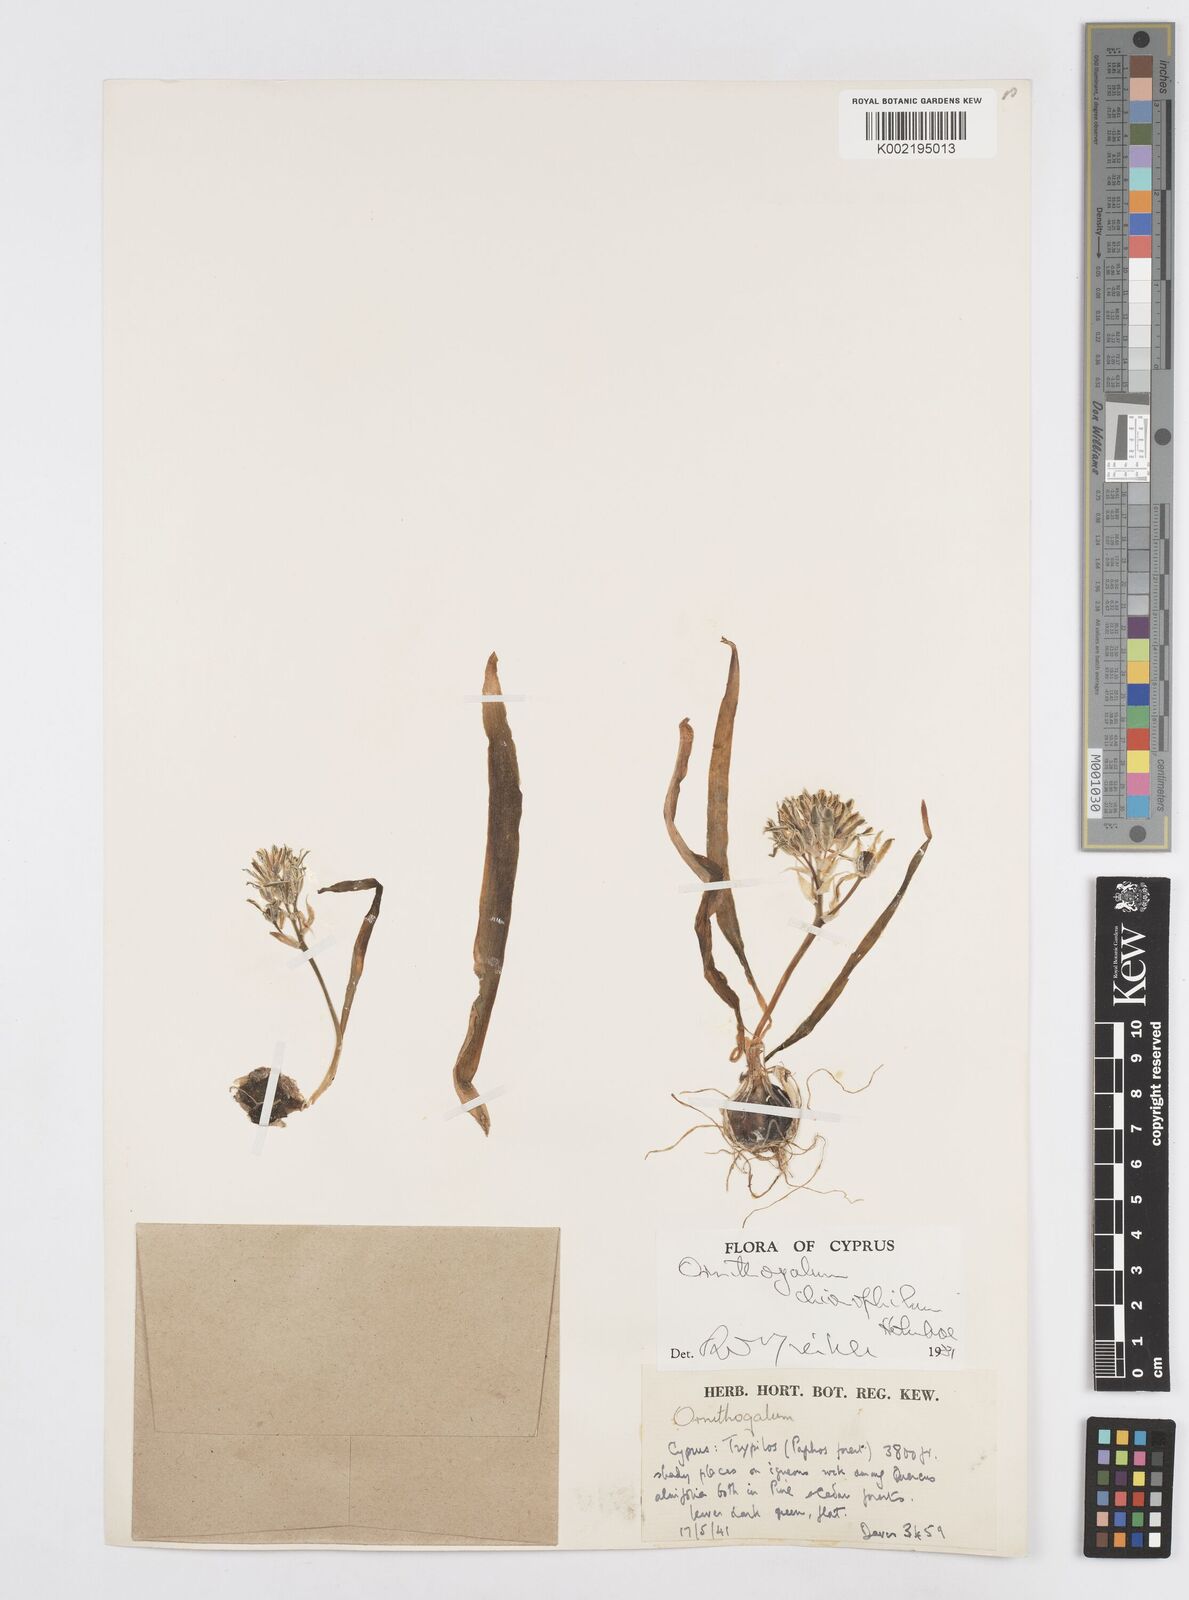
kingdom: Plantae
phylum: Tracheophyta
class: Liliopsida
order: Asparagales
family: Asparagaceae
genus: Ornithogalum
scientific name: Ornithogalum chionophilum
